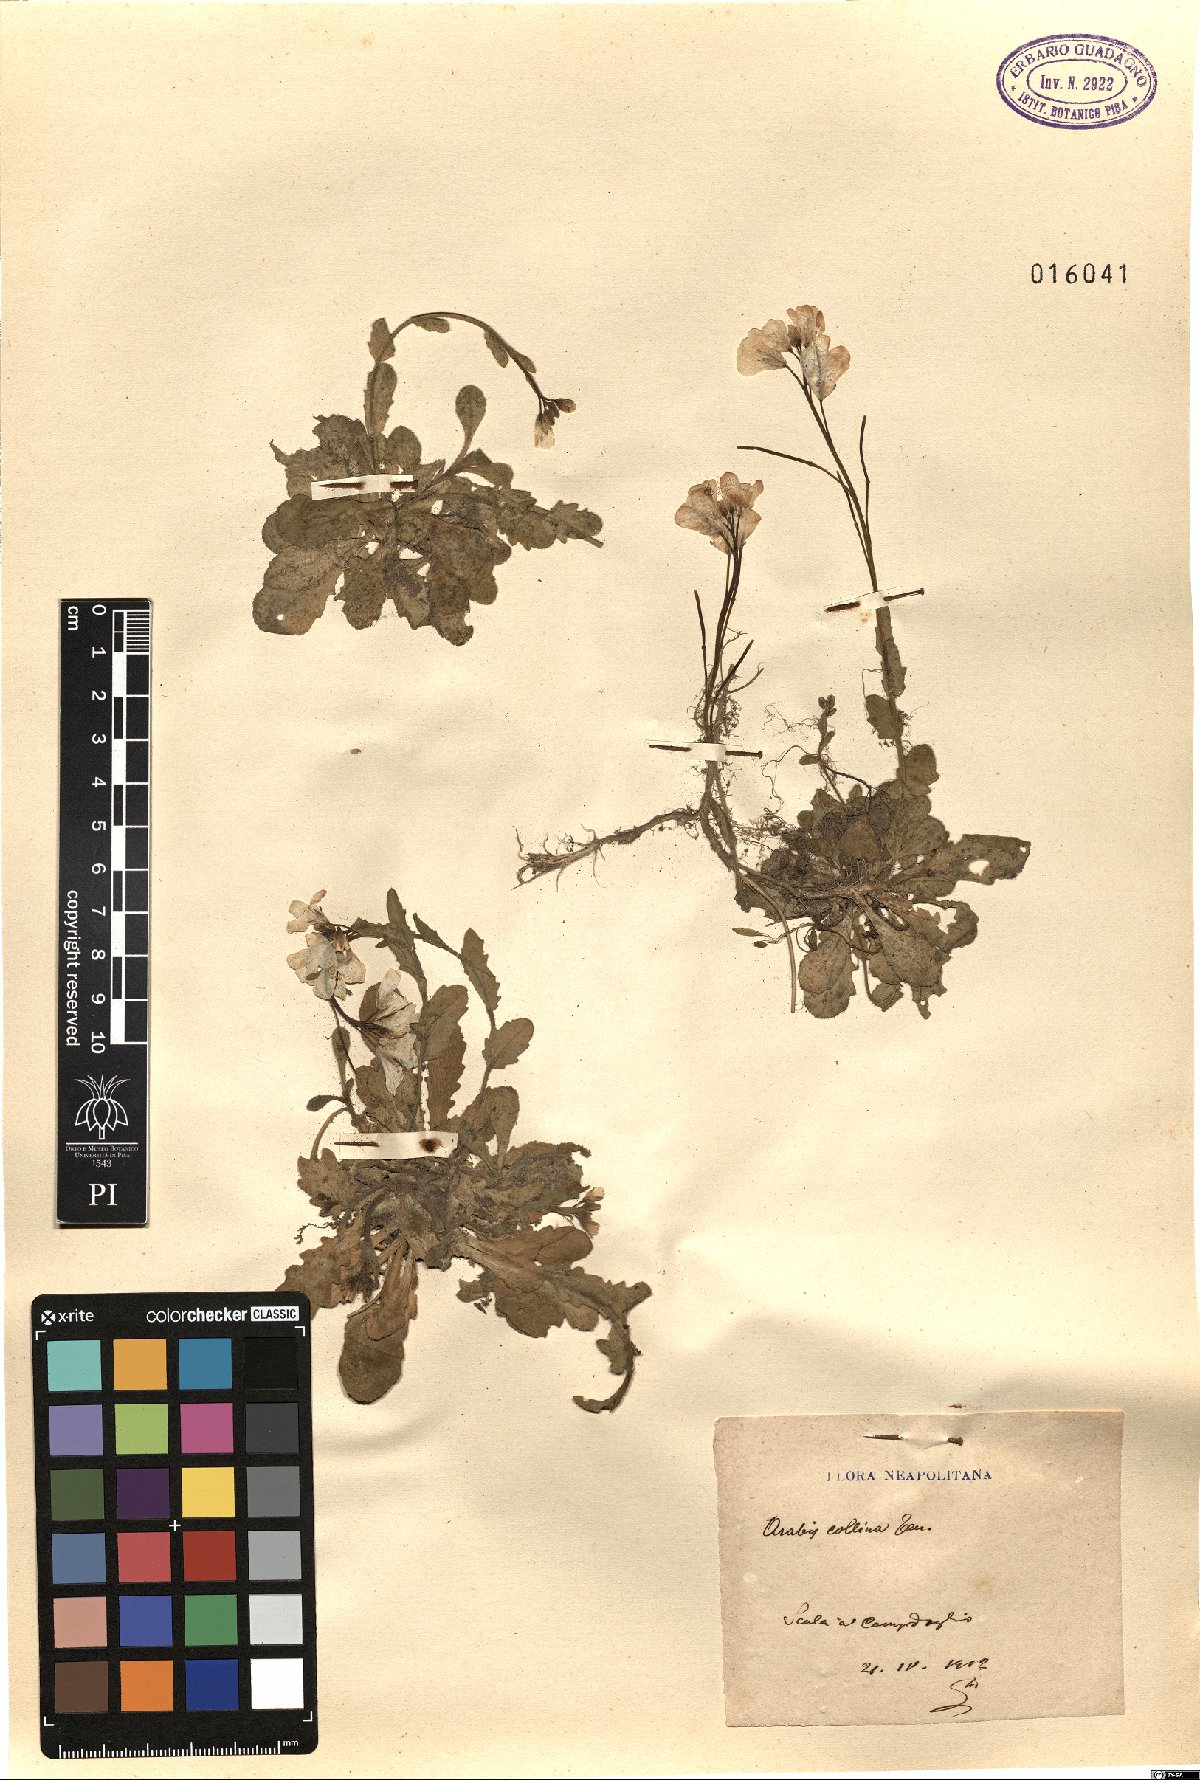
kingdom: Plantae
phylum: Tracheophyta
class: Magnoliopsida
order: Brassicales
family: Brassicaceae
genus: Arabis
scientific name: Arabis collina
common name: Rosy cress
